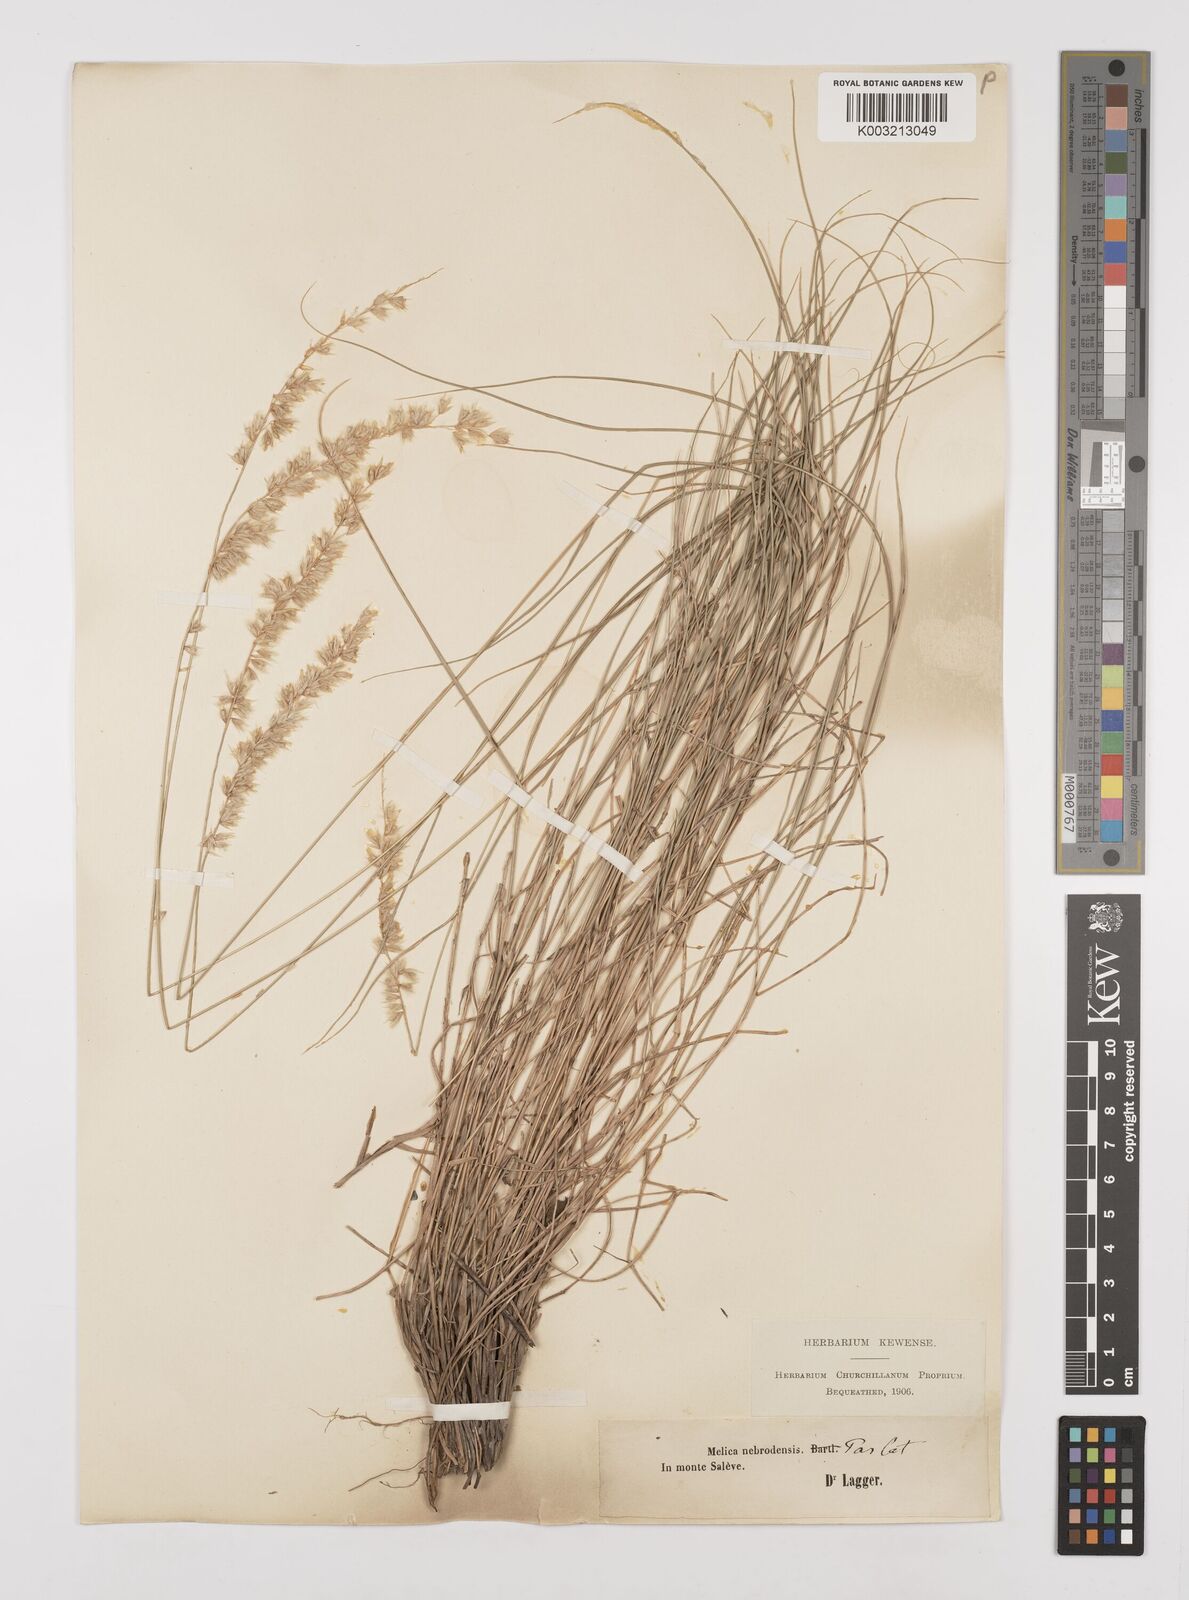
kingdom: Plantae
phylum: Tracheophyta
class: Liliopsida
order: Poales
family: Poaceae
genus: Melica
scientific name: Melica ciliata
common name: Hairy melicgrass
